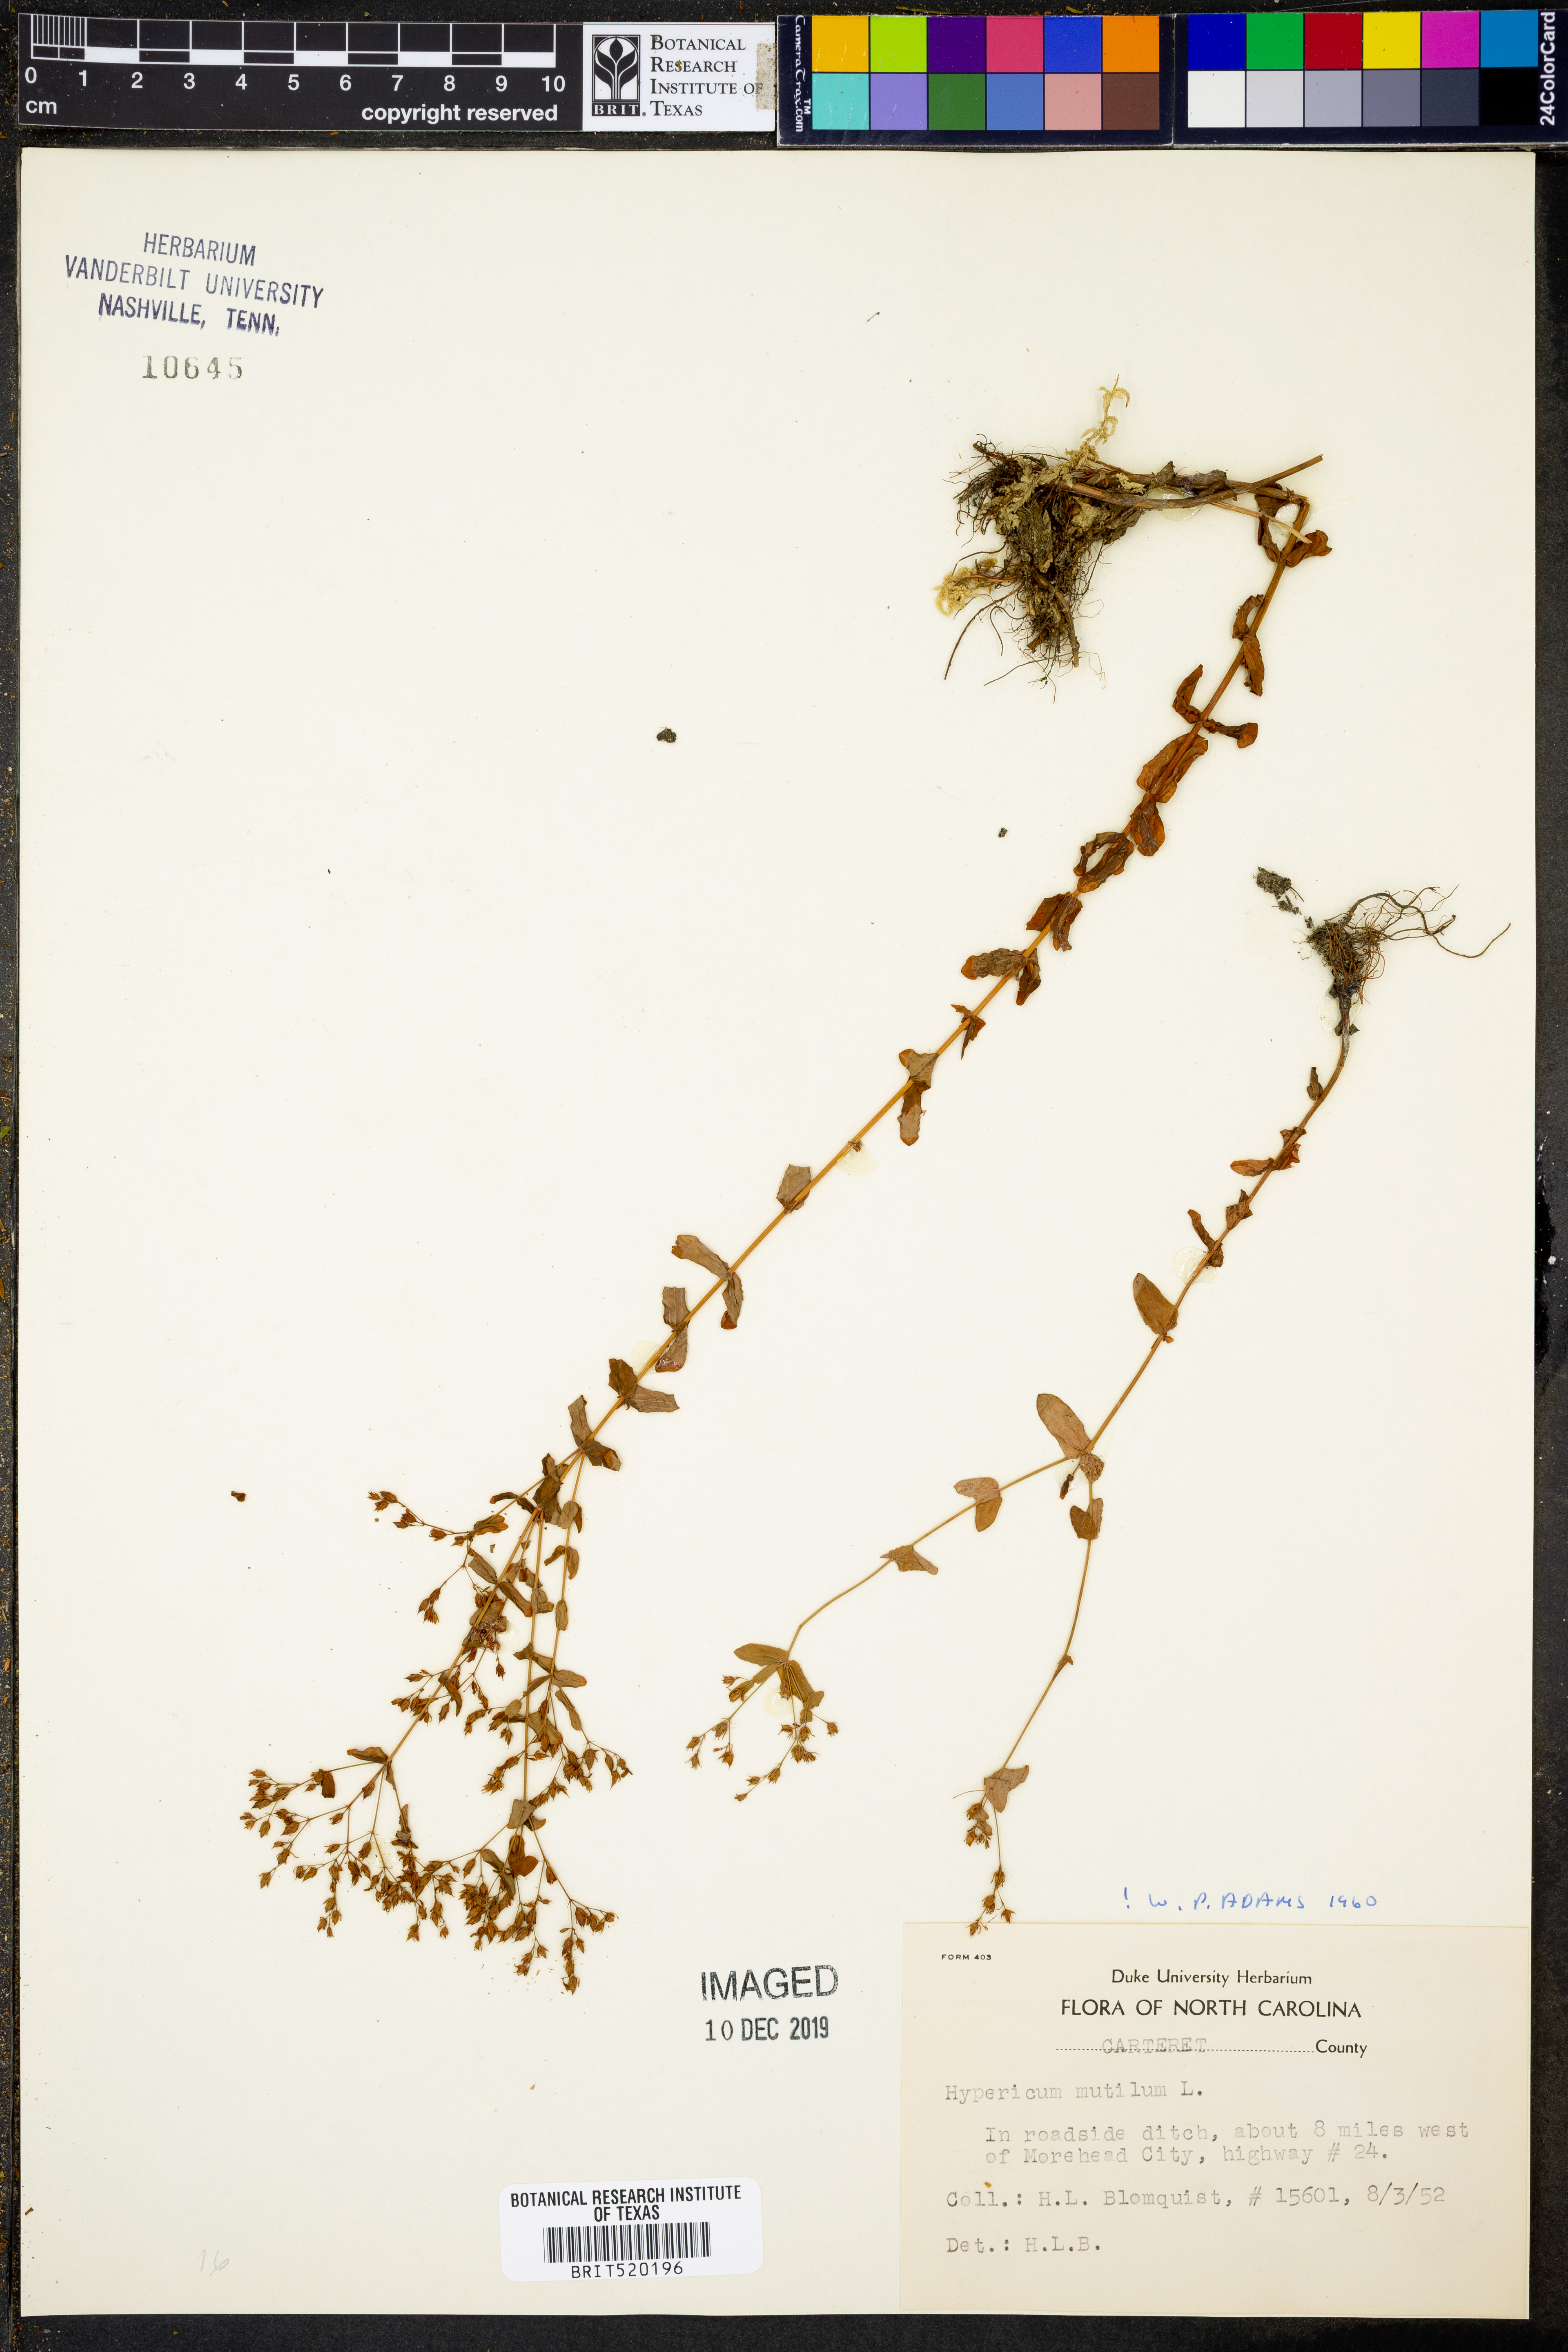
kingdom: Plantae
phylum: Tracheophyta
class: Magnoliopsida
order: Malpighiales
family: Hypericaceae
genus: Hypericum
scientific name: Hypericum mutilum
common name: Dwarf st. john's-wort
